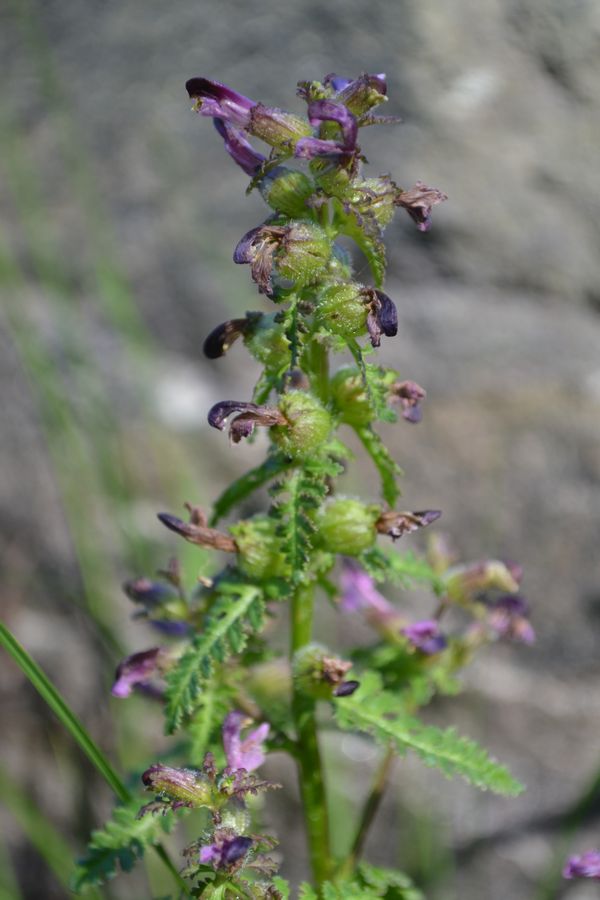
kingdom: Plantae
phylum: Tracheophyta
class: Magnoliopsida
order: Lamiales
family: Orobanchaceae
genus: Pedicularis
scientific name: Pedicularis palustris
